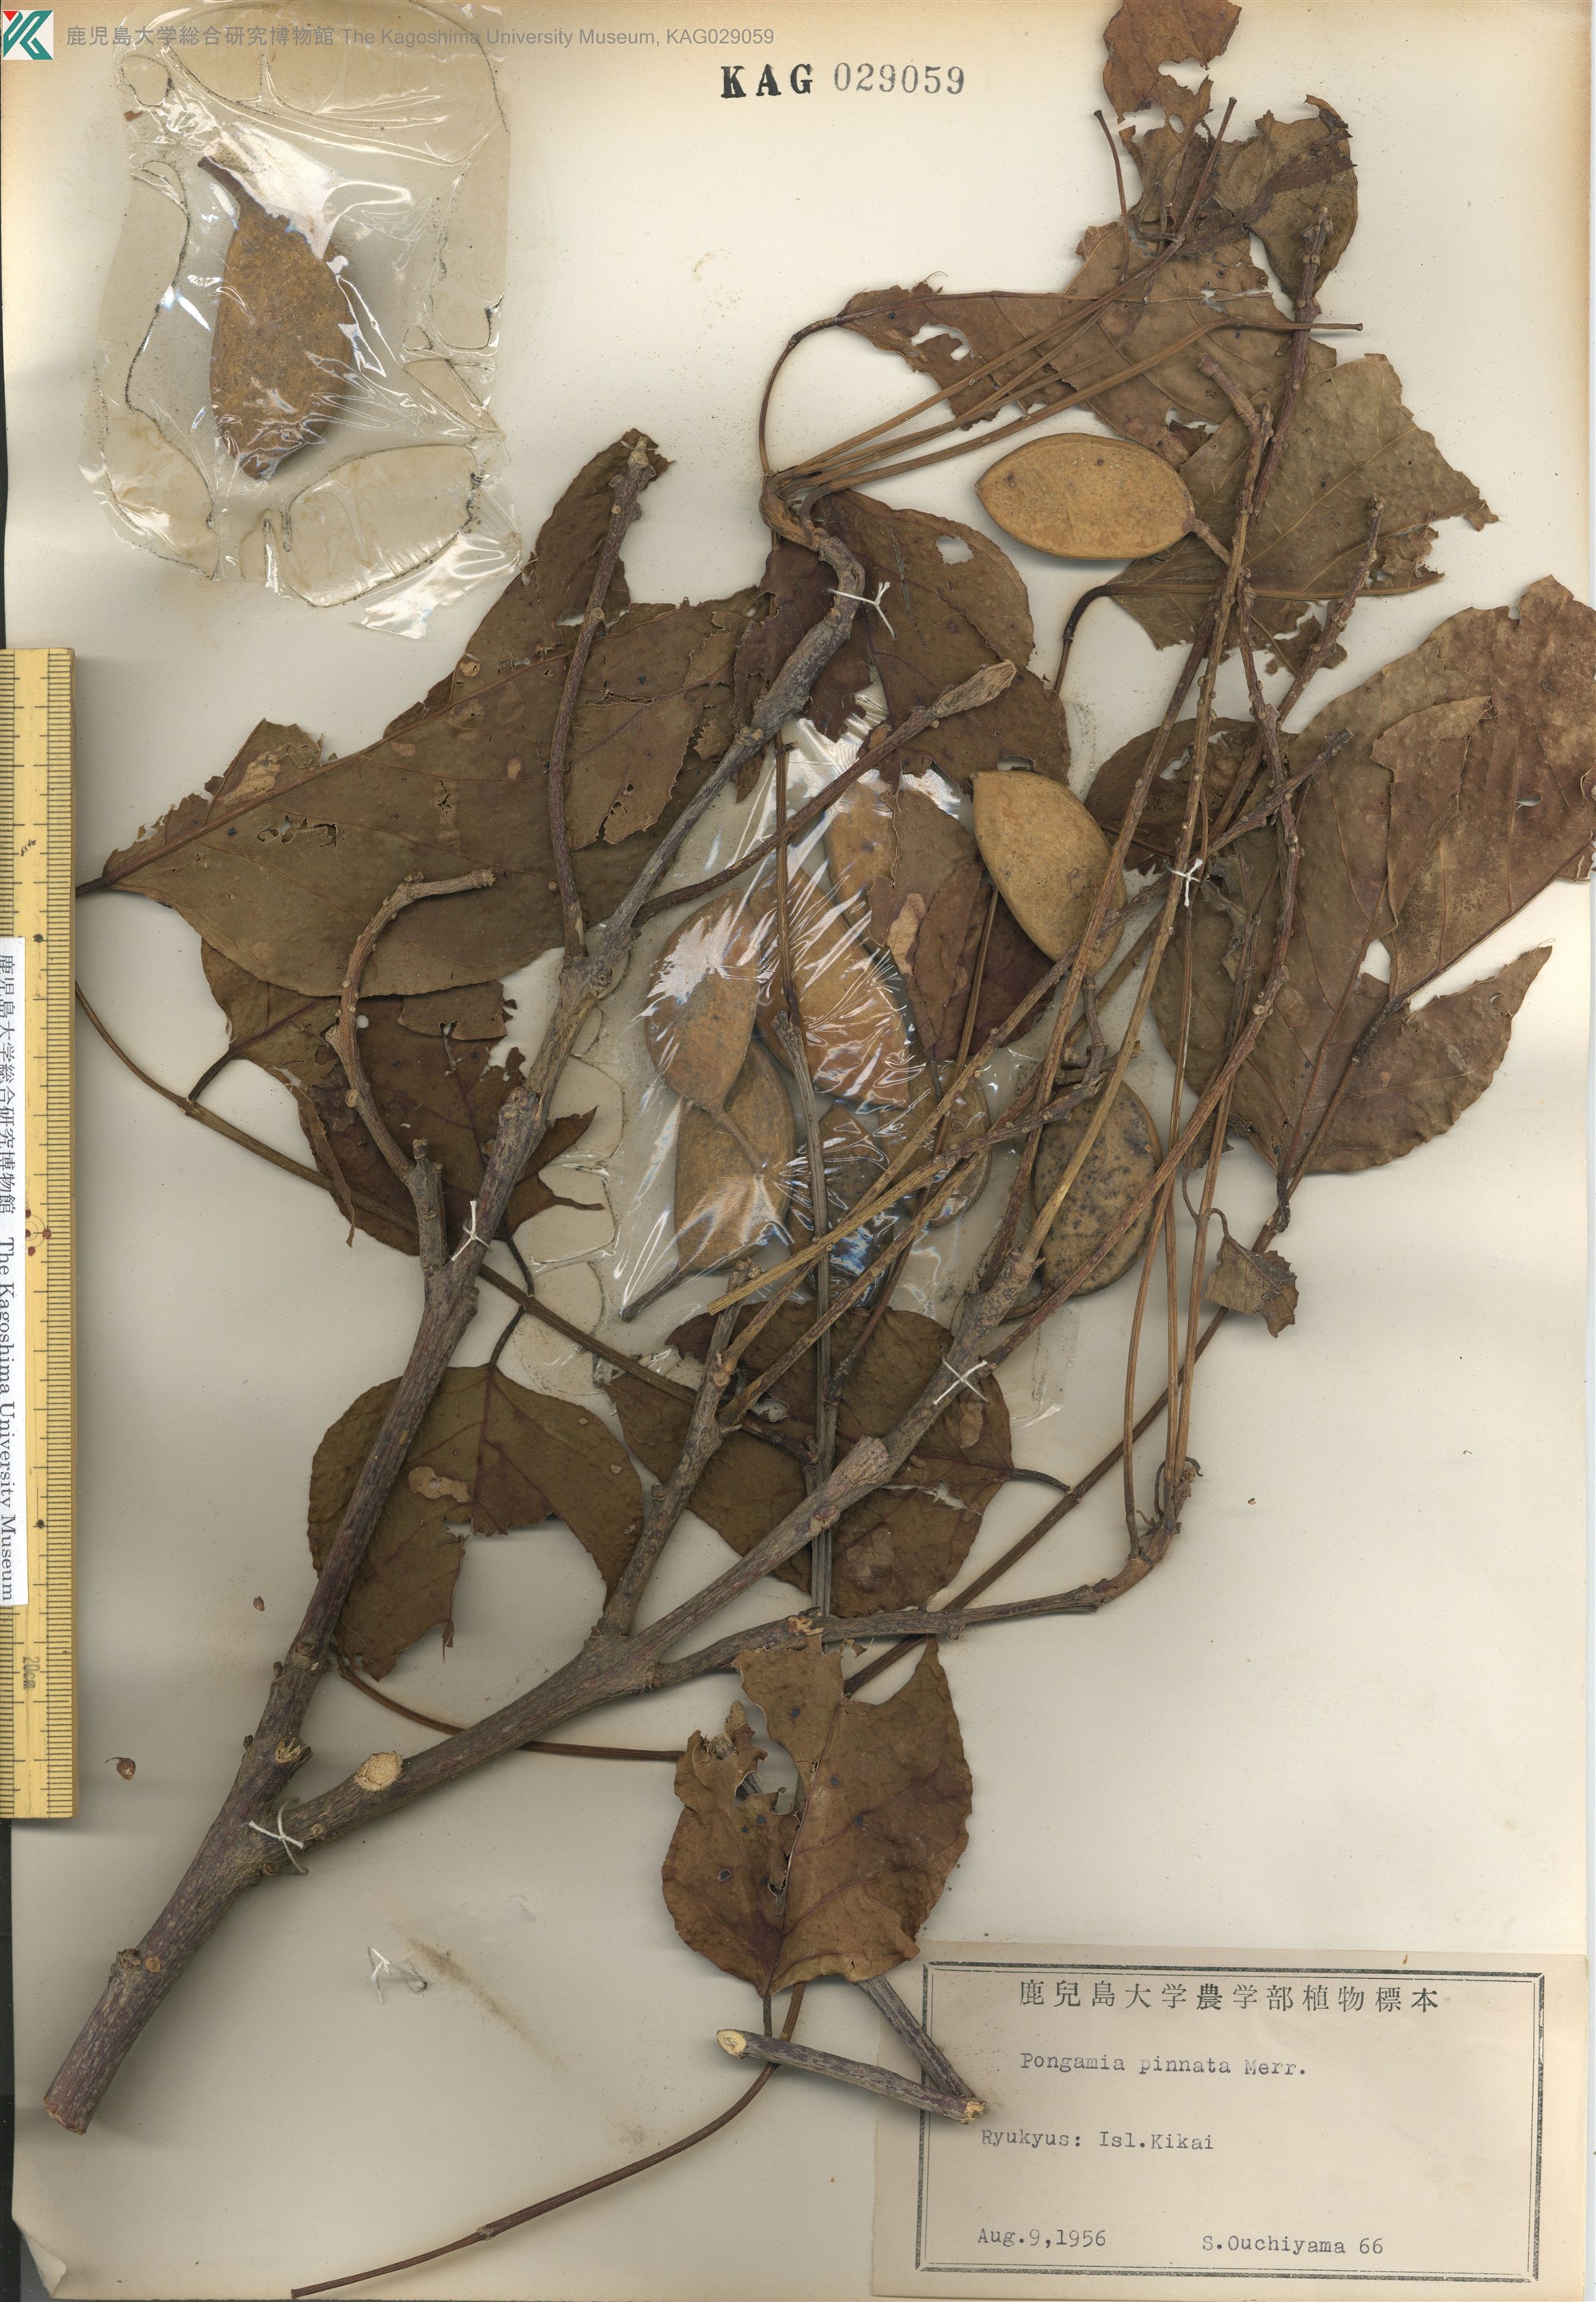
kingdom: Plantae
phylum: Tracheophyta
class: Magnoliopsida
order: Fabales
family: Fabaceae
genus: Pongamia
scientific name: Pongamia pinnata
